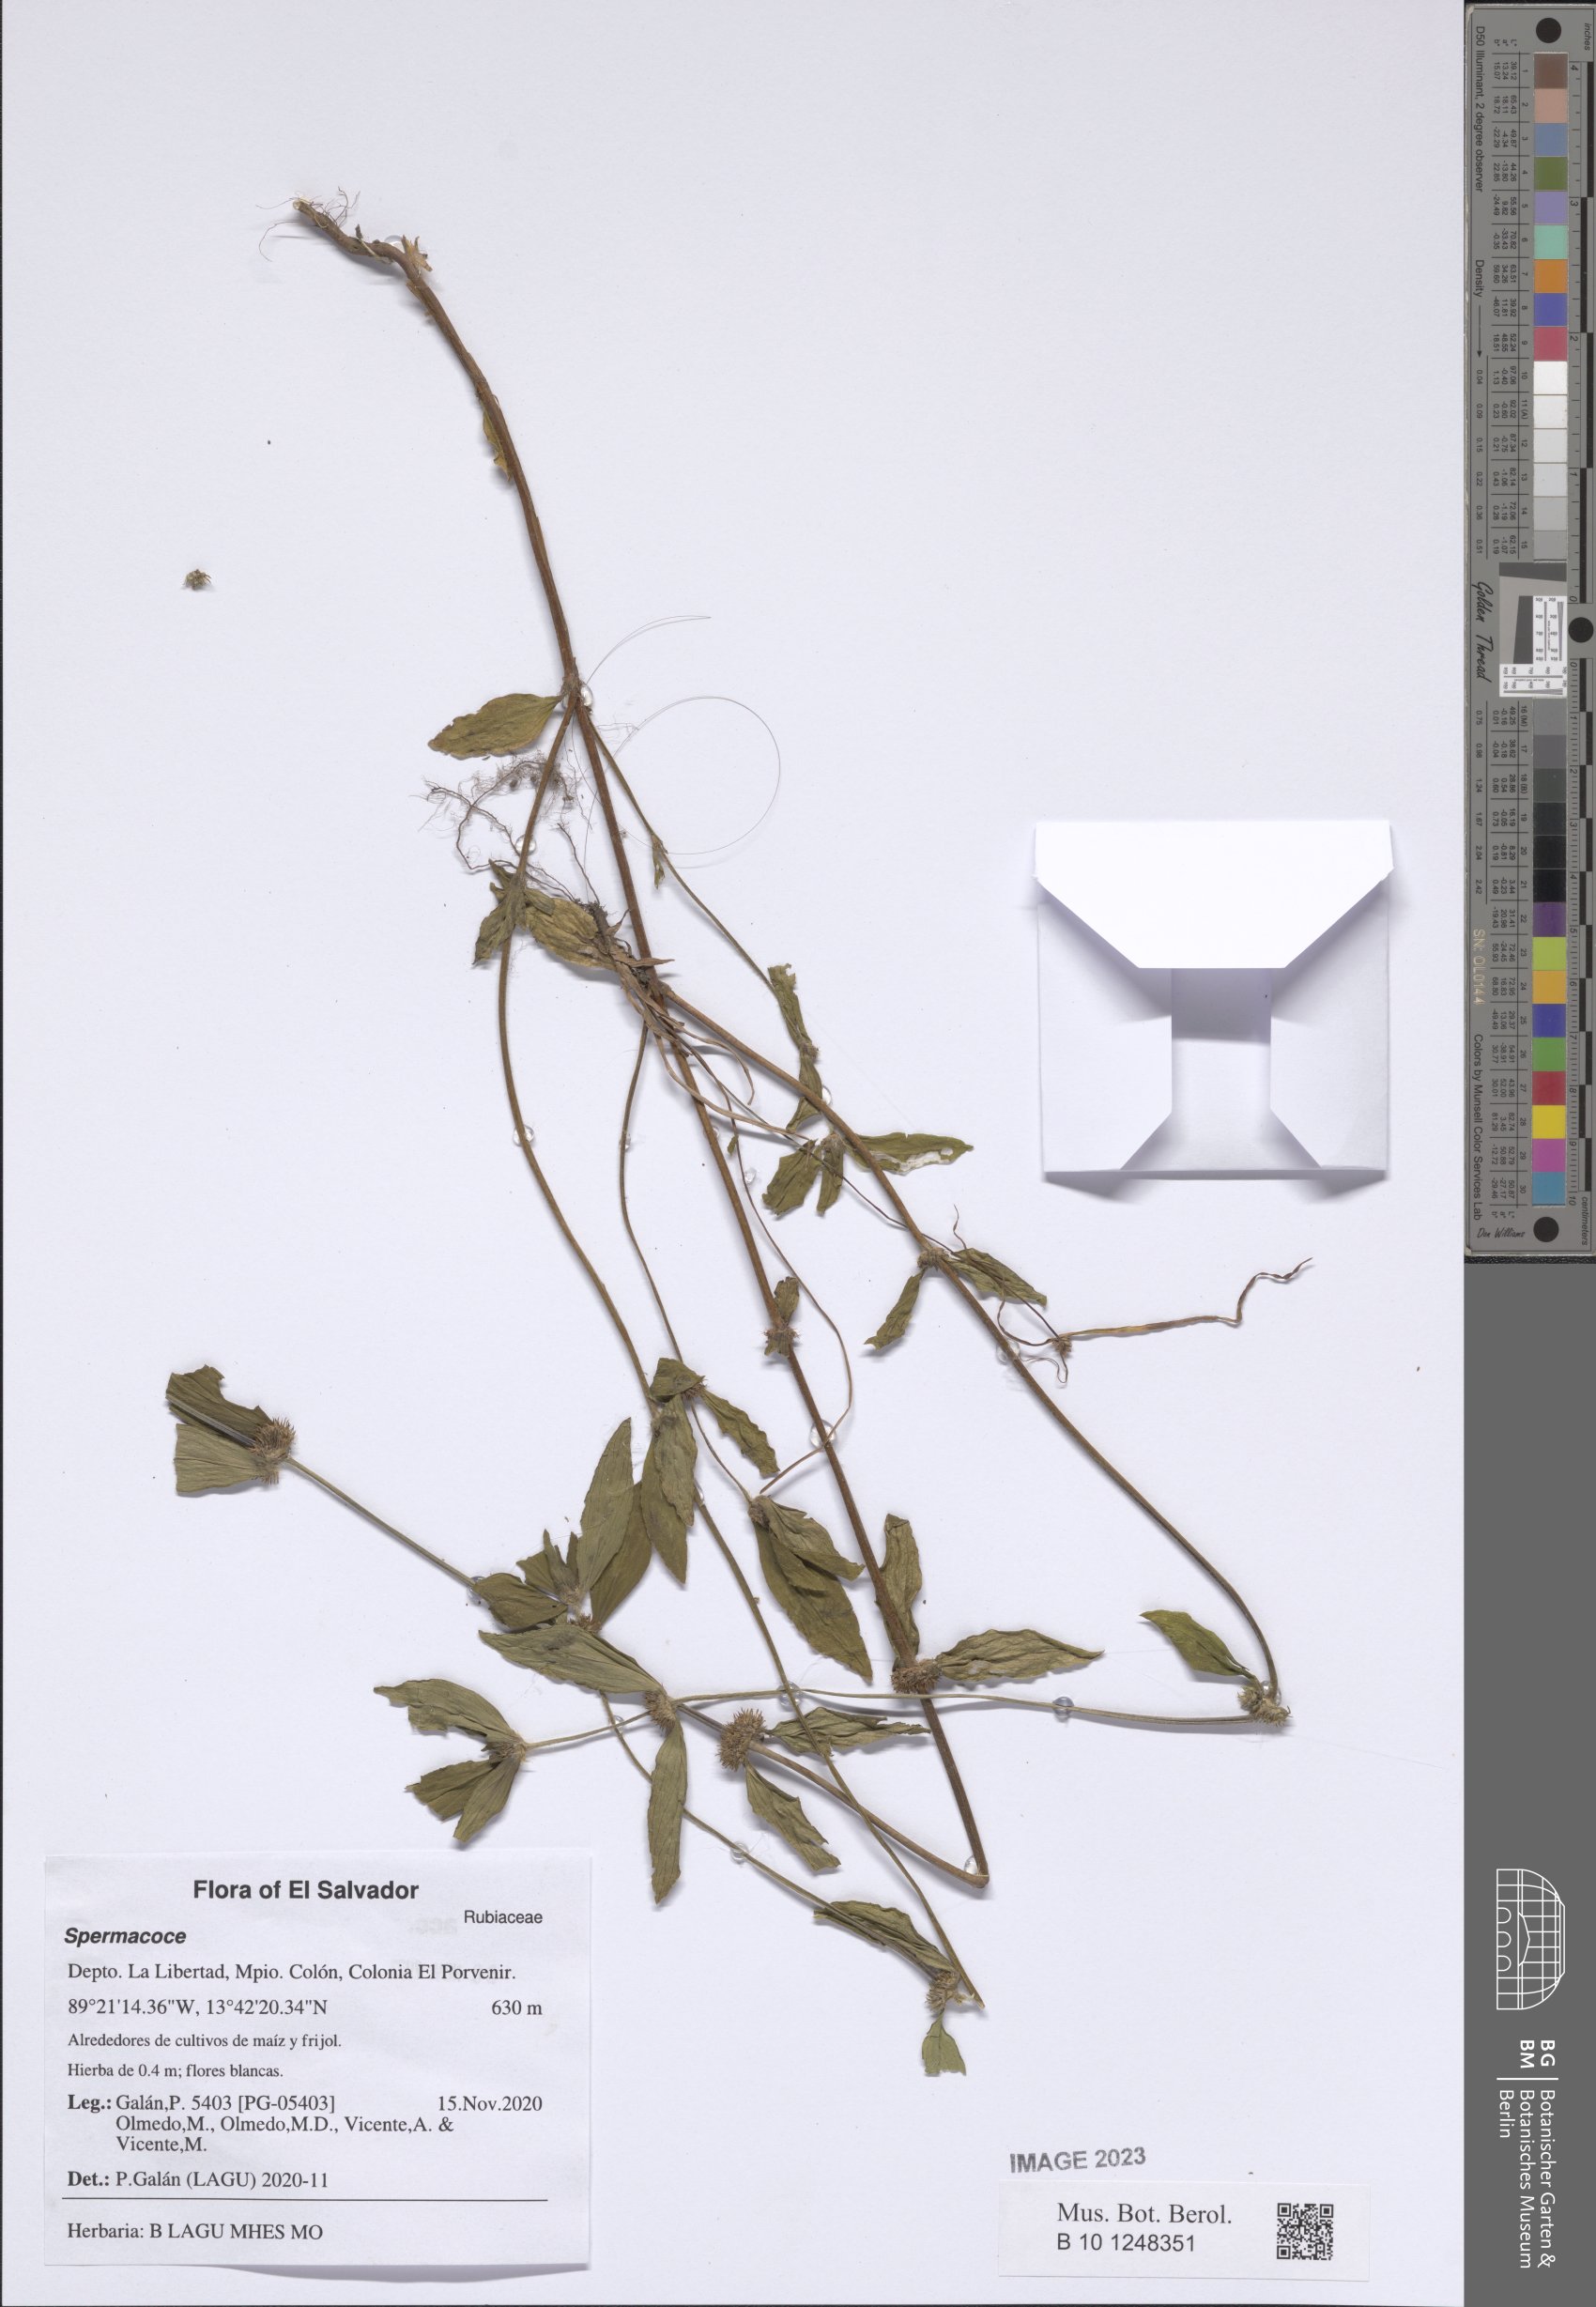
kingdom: Plantae
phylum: Tracheophyta
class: Magnoliopsida
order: Gentianales
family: Rubiaceae
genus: Spermacoce
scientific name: Spermacoce
